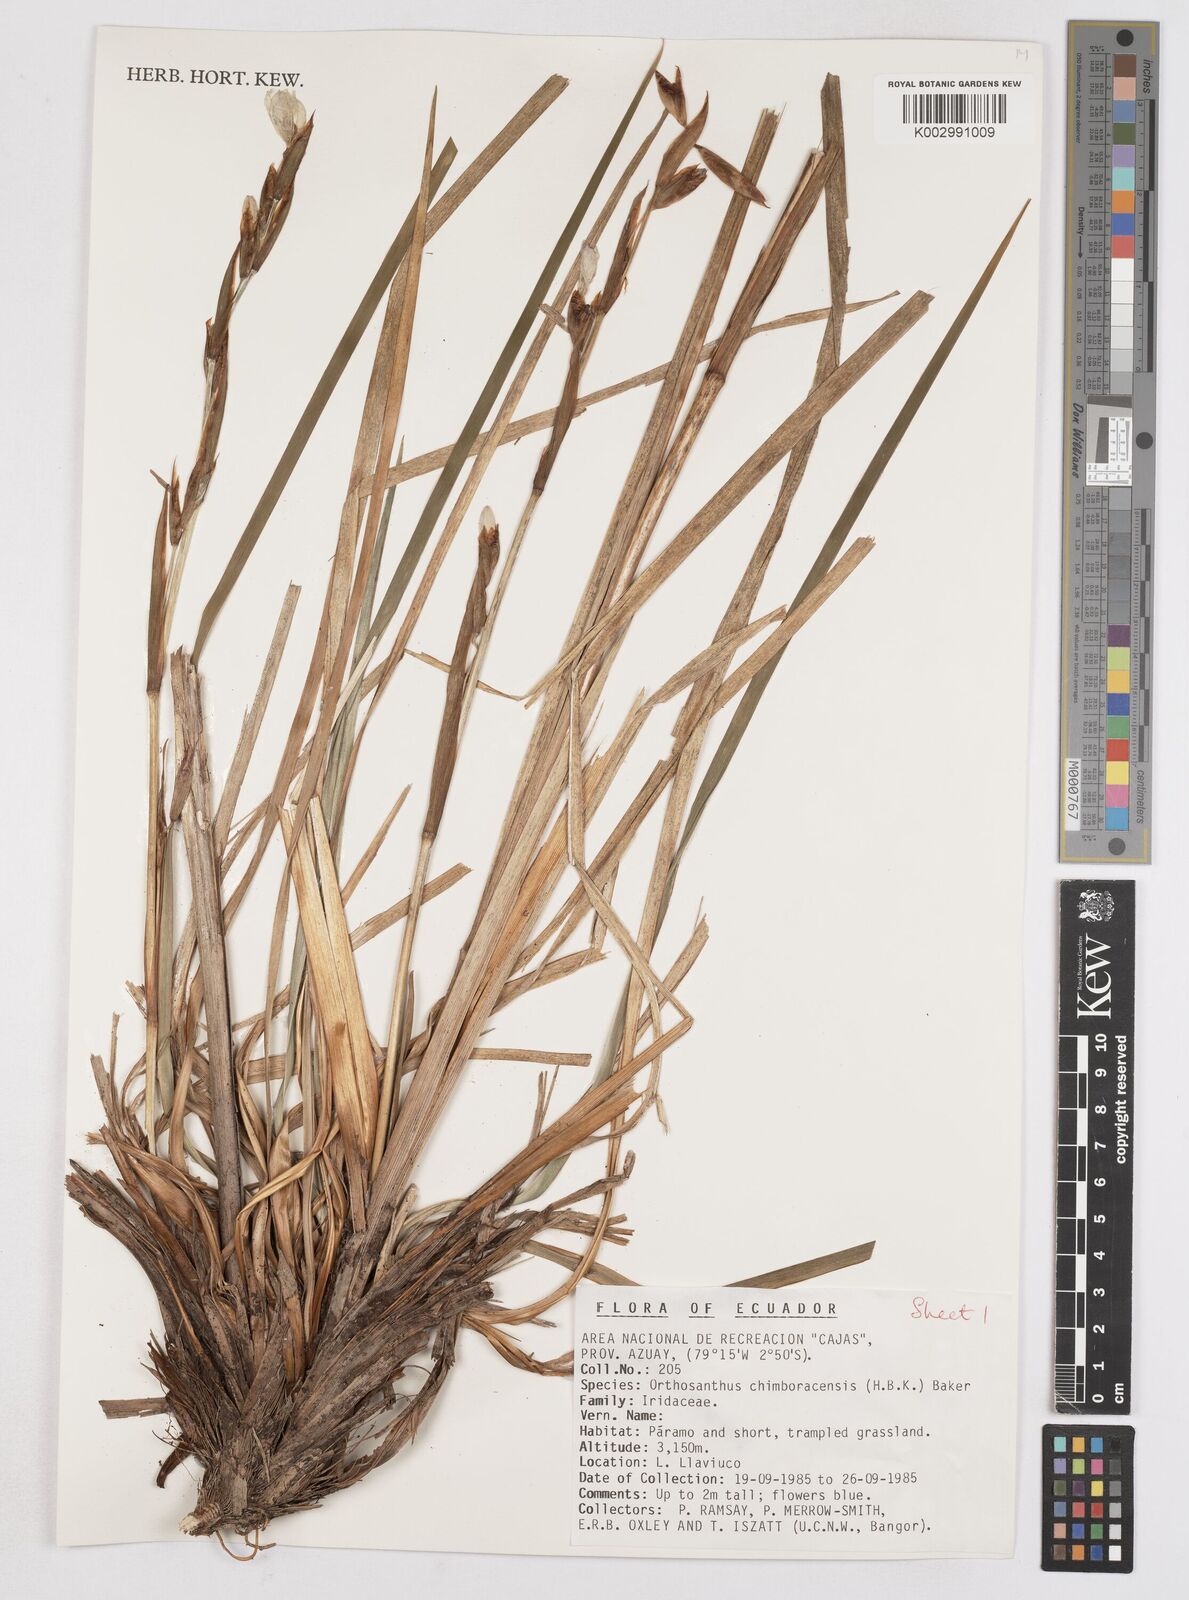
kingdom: Plantae
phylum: Tracheophyta
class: Liliopsida
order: Asparagales
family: Iridaceae
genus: Orthrosanthus
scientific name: Orthrosanthus chimboracensis
